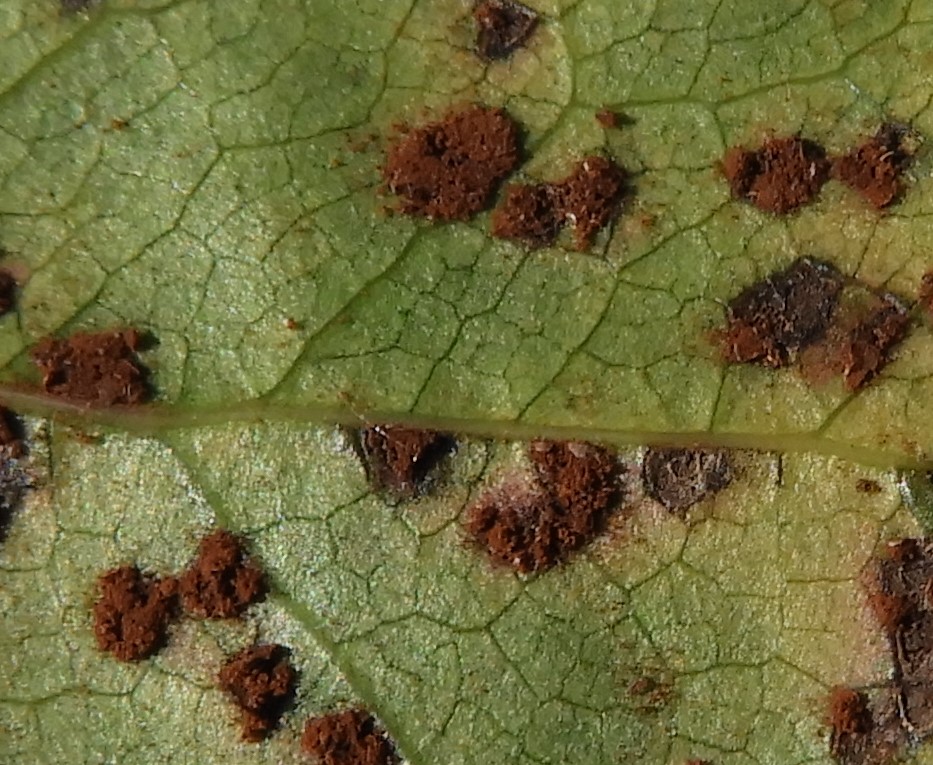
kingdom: Fungi
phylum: Basidiomycota
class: Pucciniomycetes
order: Pucciniales
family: Pucciniaceae
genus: Cumminsiella
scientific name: Cumminsiella mirabilissima
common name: mahonierust
